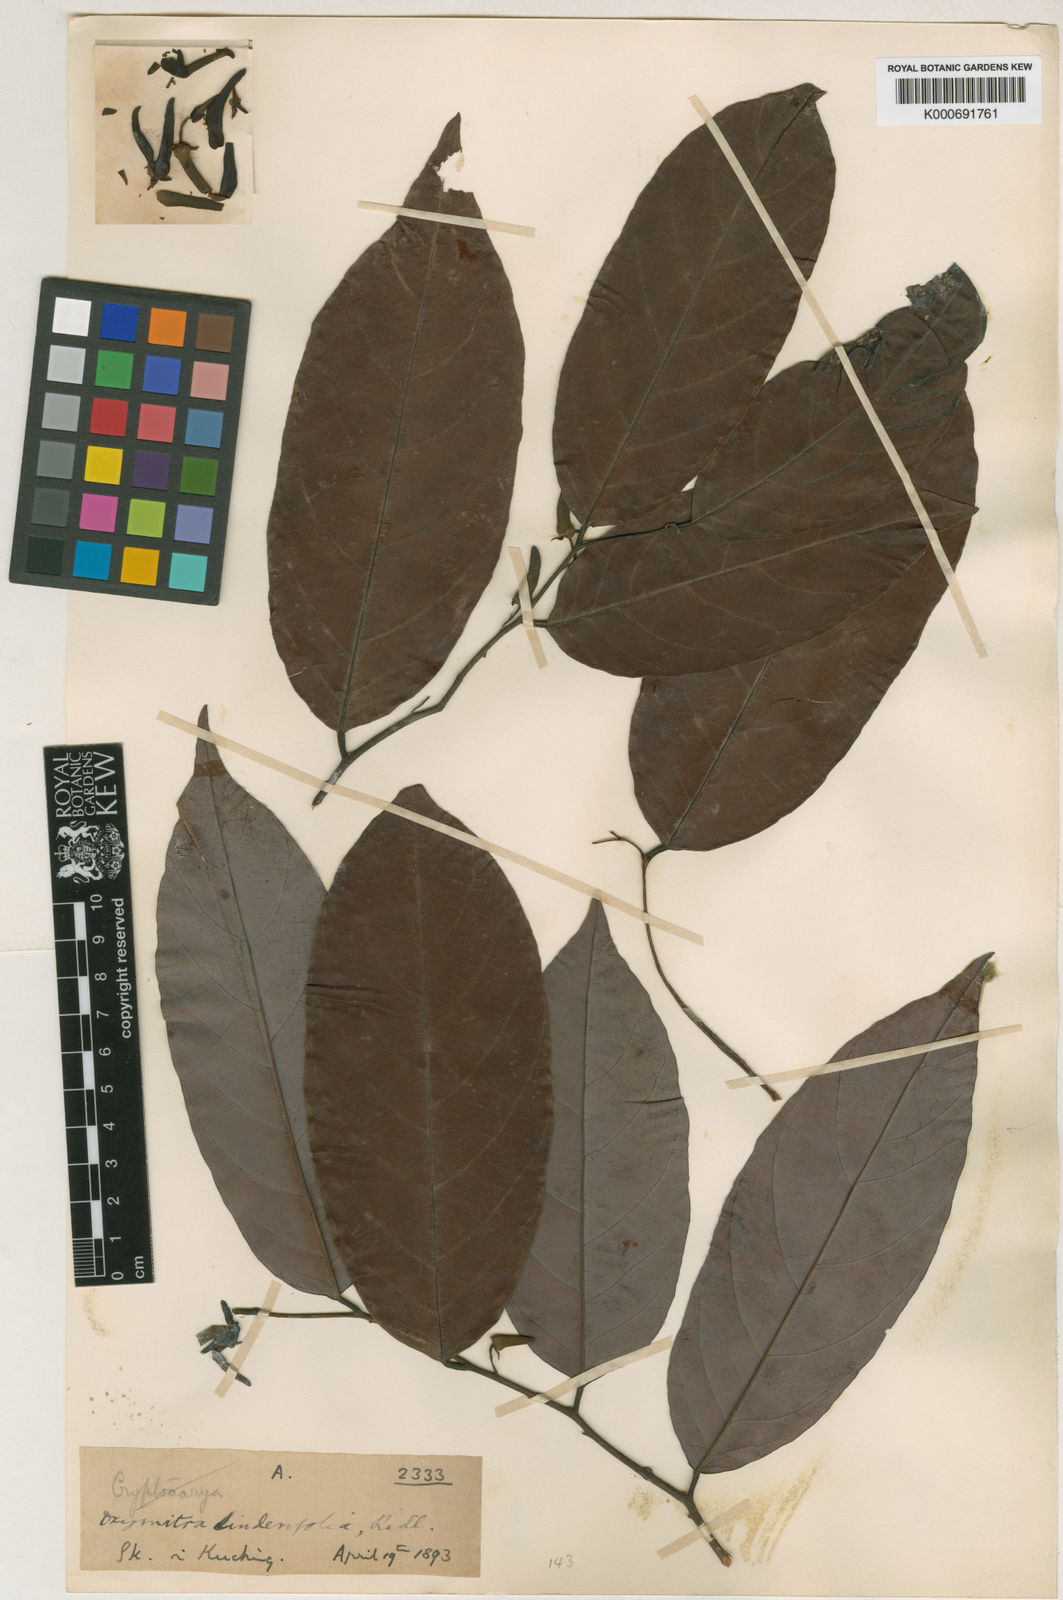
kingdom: Plantae
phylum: Tracheophyta
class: Magnoliopsida
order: Magnoliales
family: Annonaceae
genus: Friesodielsia
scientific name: Friesodielsia glauca
